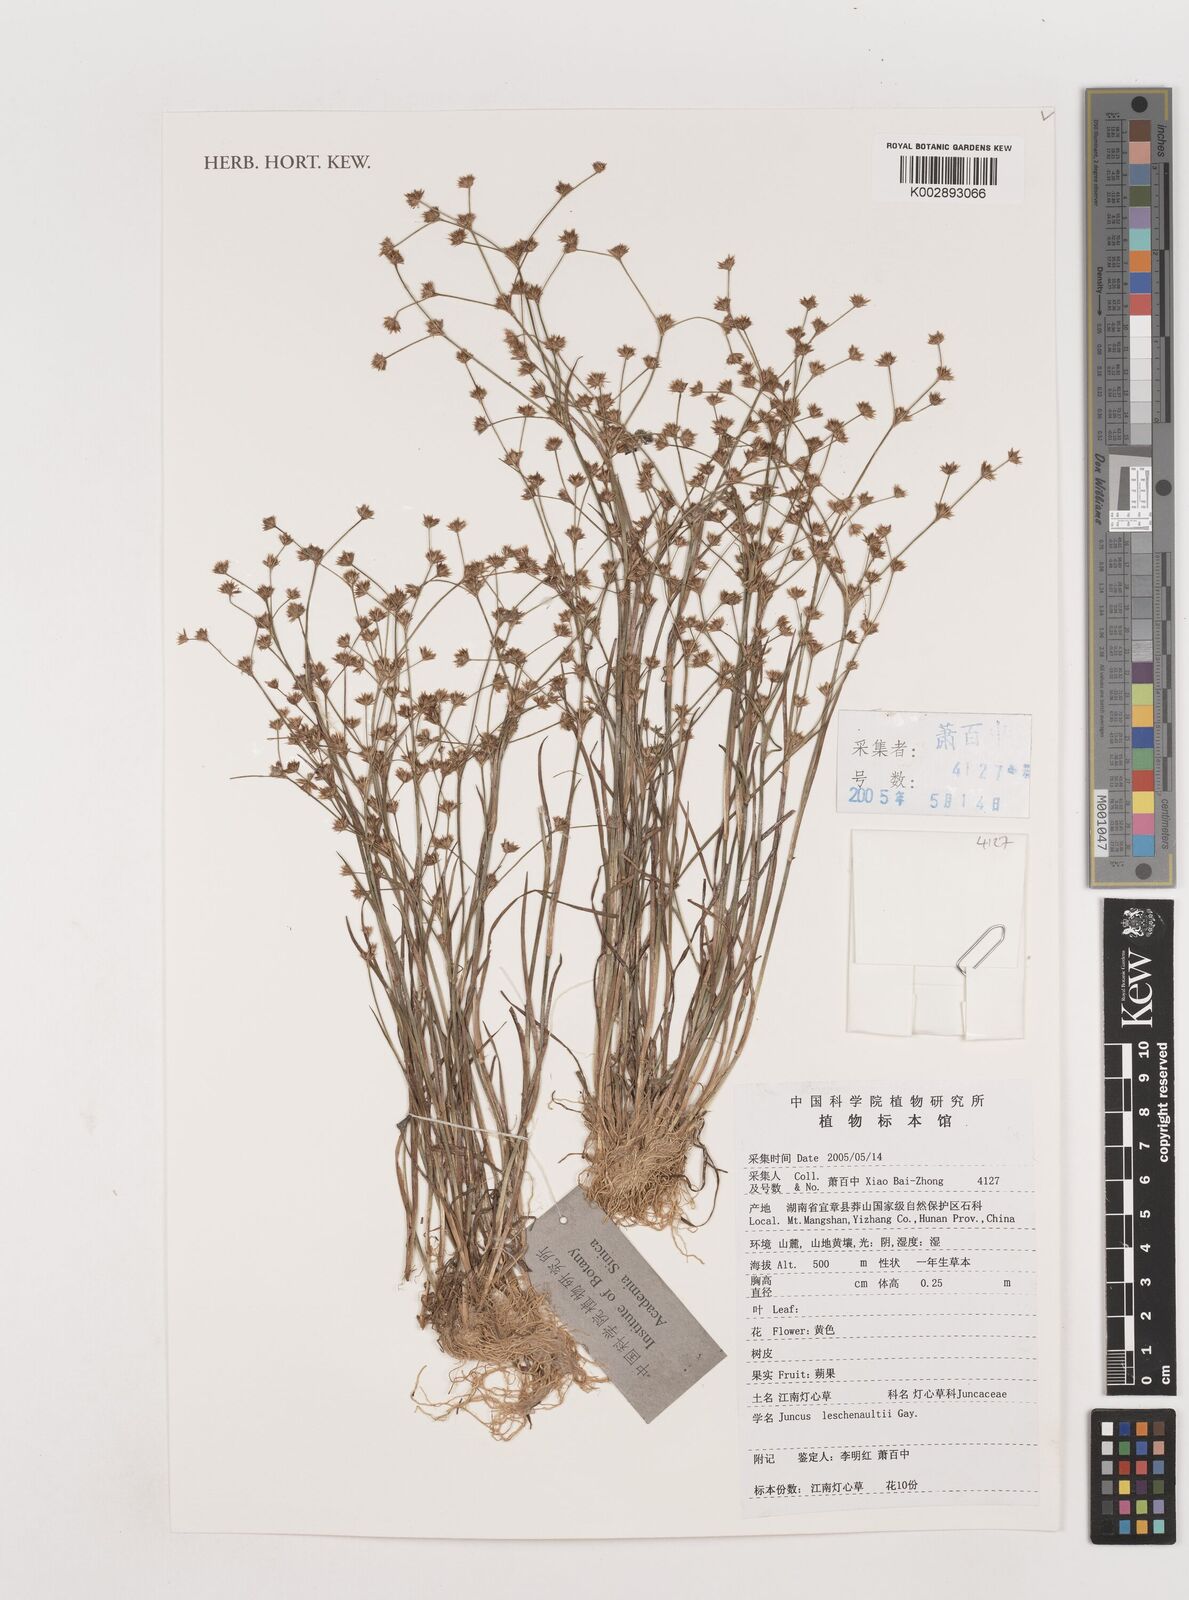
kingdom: Plantae
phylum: Tracheophyta
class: Liliopsida
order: Poales
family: Juncaceae
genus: Juncus
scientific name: Juncus prismatocarpus
